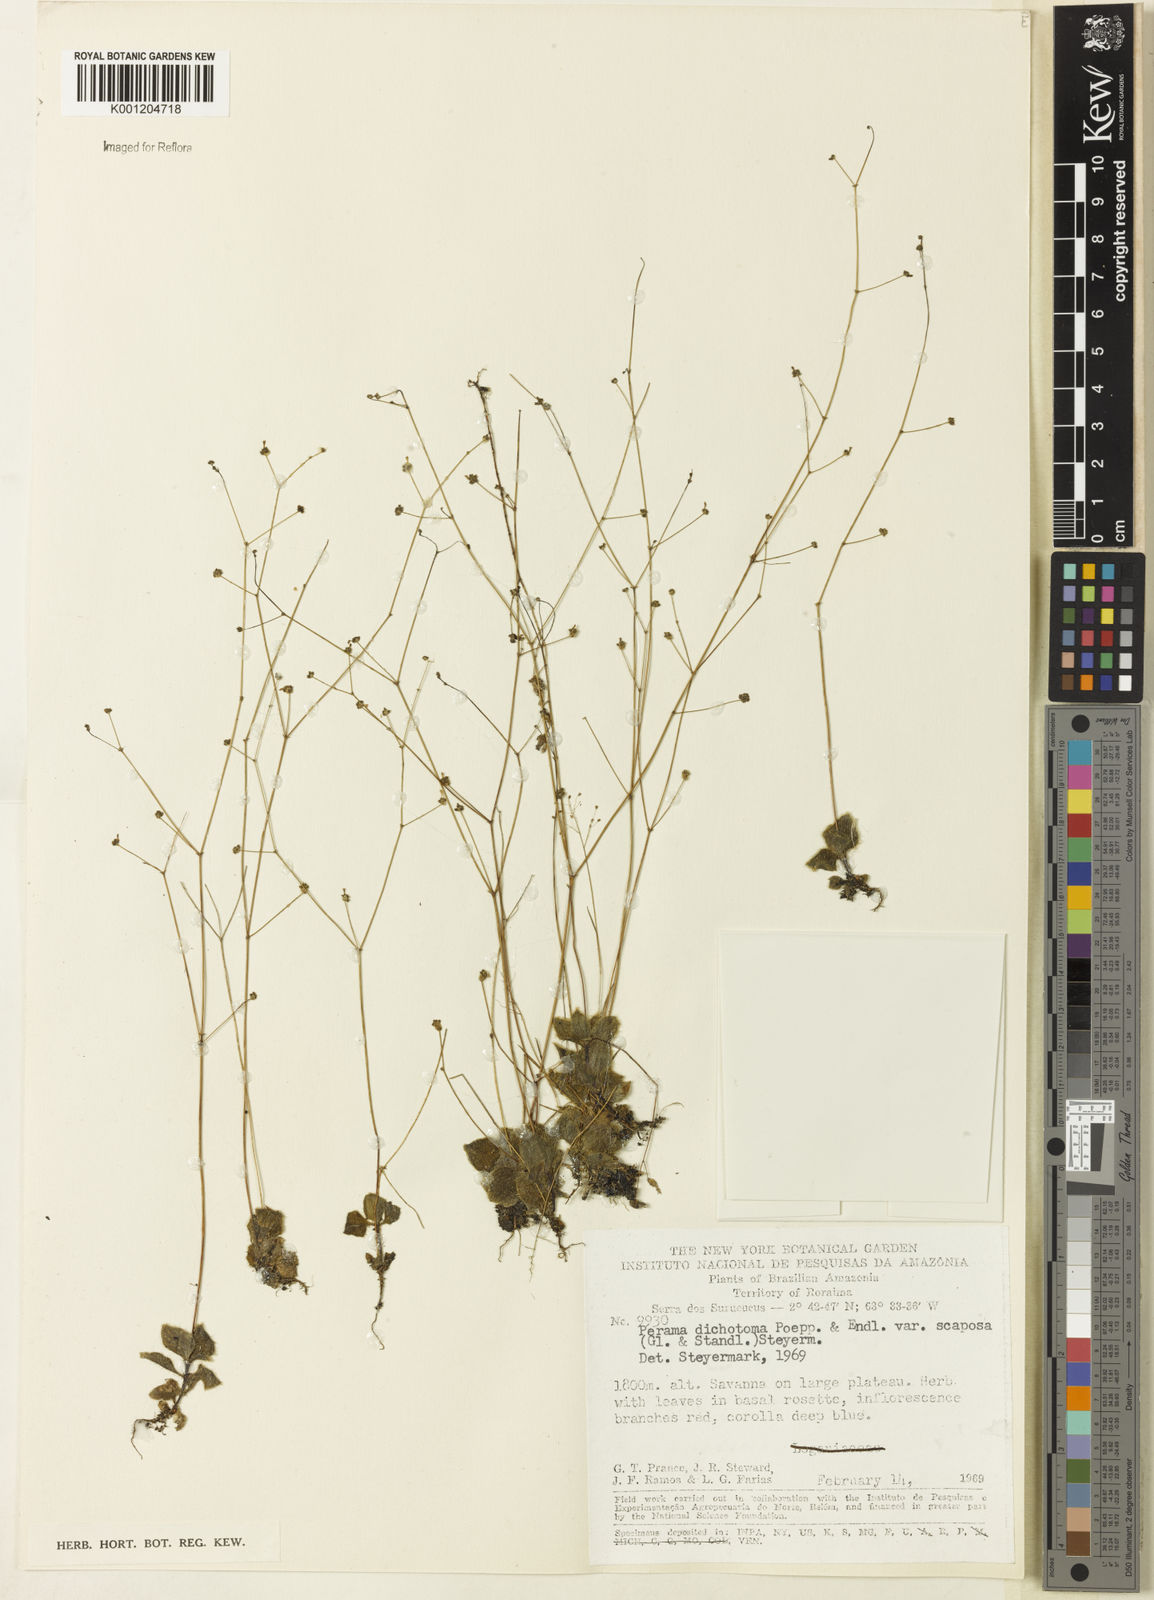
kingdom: Plantae
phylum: Tracheophyta
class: Magnoliopsida
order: Gentianales
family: Rubiaceae
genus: Perama
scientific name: Perama dichotoma
